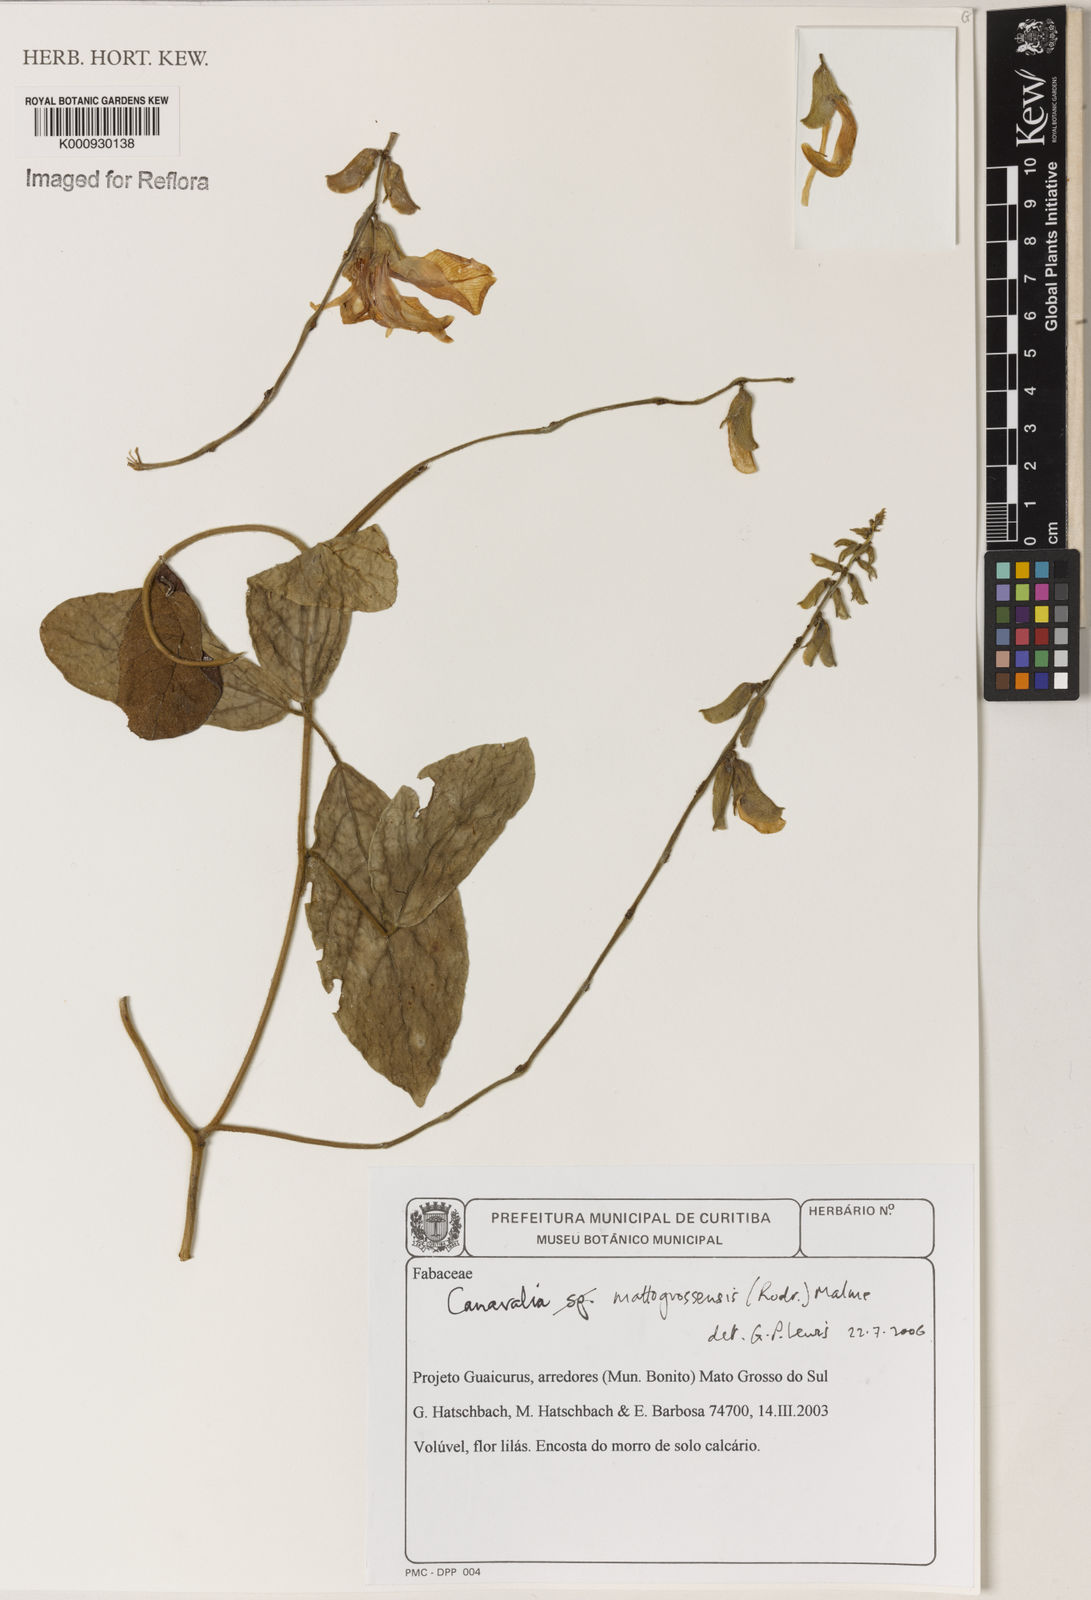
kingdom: Plantae
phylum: Tracheophyta
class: Magnoliopsida
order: Fabales
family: Fabaceae
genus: Canavalia
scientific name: Canavalia mattogrossensis
